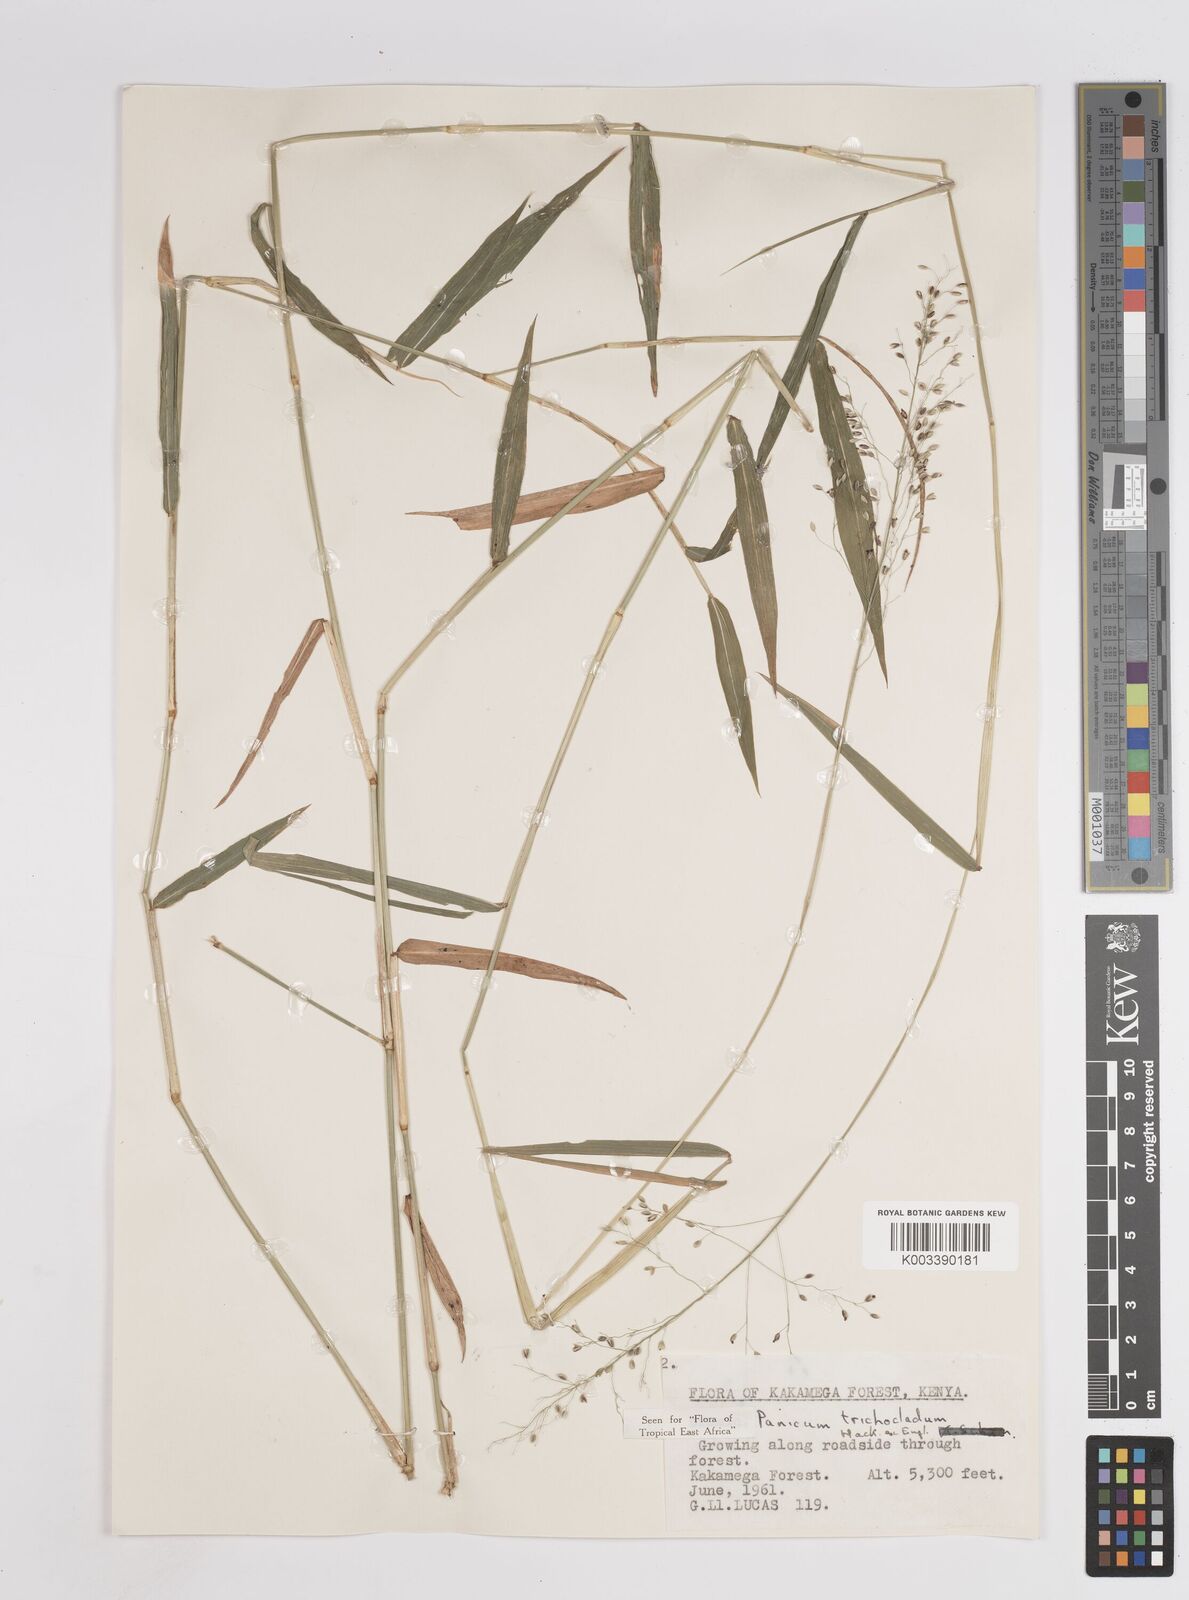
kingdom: Plantae
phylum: Tracheophyta
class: Liliopsida
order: Poales
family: Poaceae
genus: Panicum
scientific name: Panicum trichocladum
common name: Donkey grass
